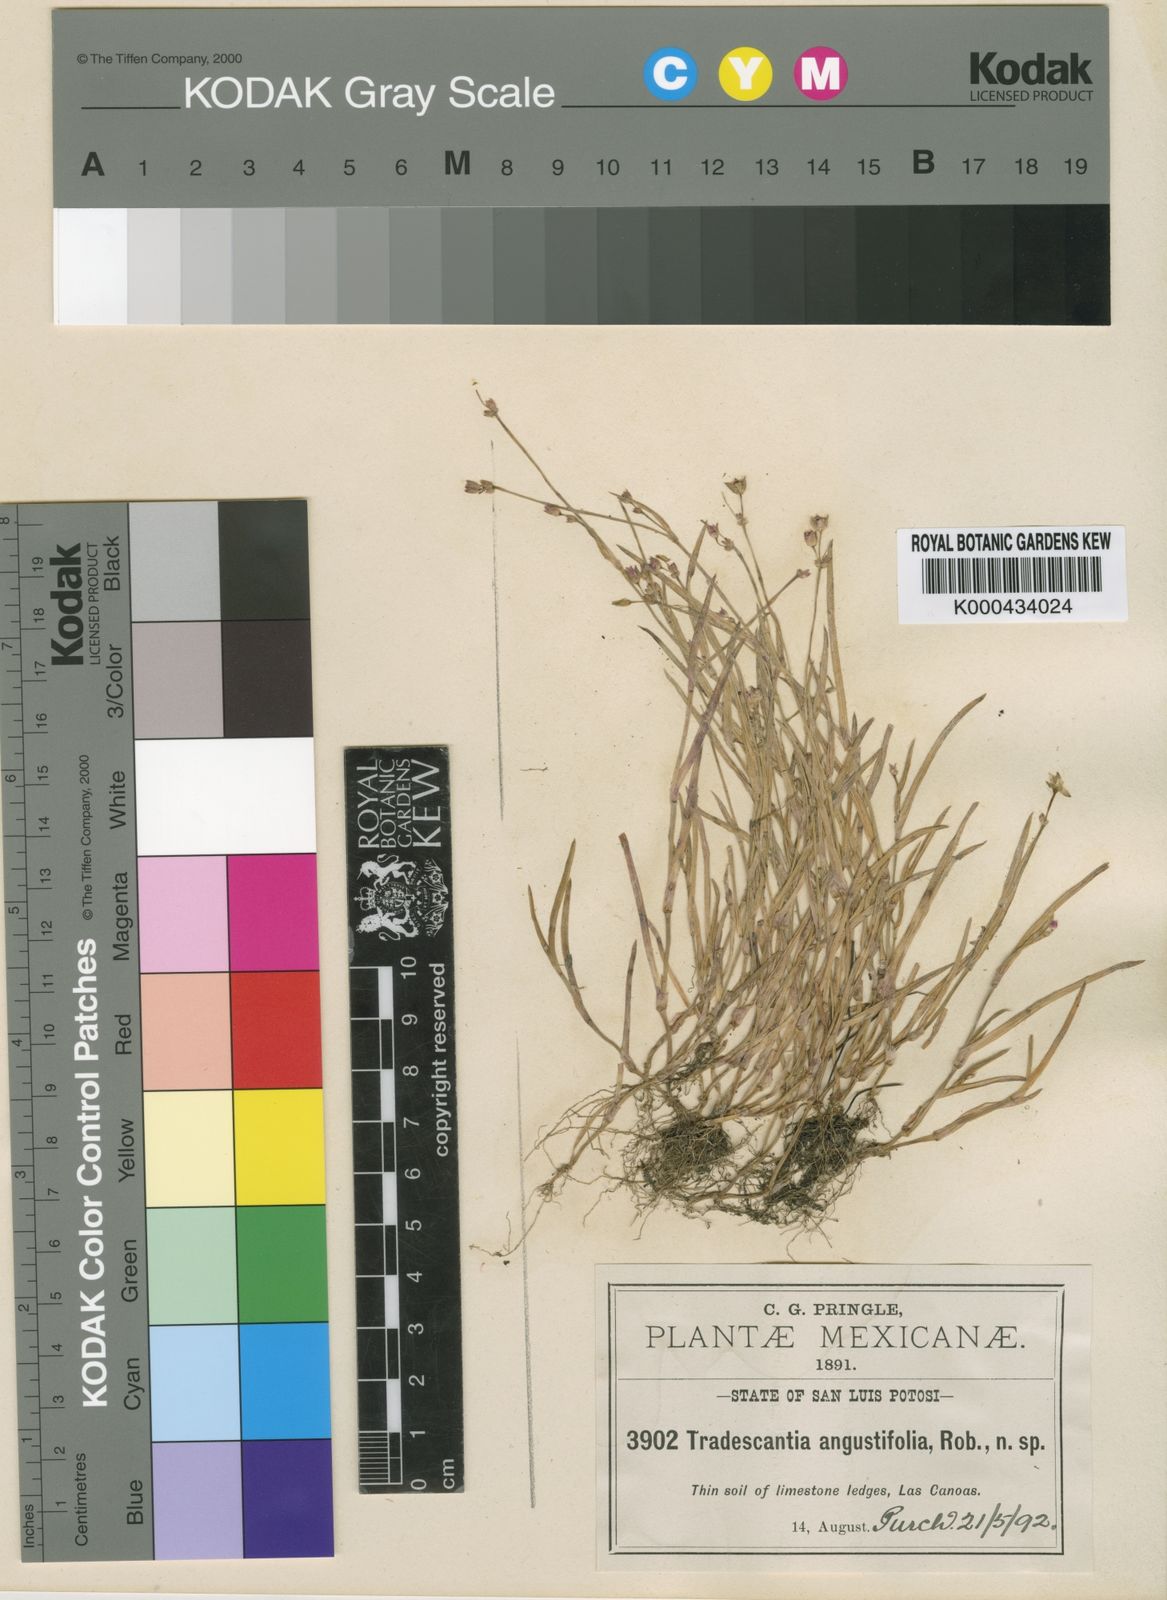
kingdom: Plantae
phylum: Tracheophyta
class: Liliopsida
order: Commelinales
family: Commelinaceae
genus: Callisia
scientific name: Callisia angustifolia
